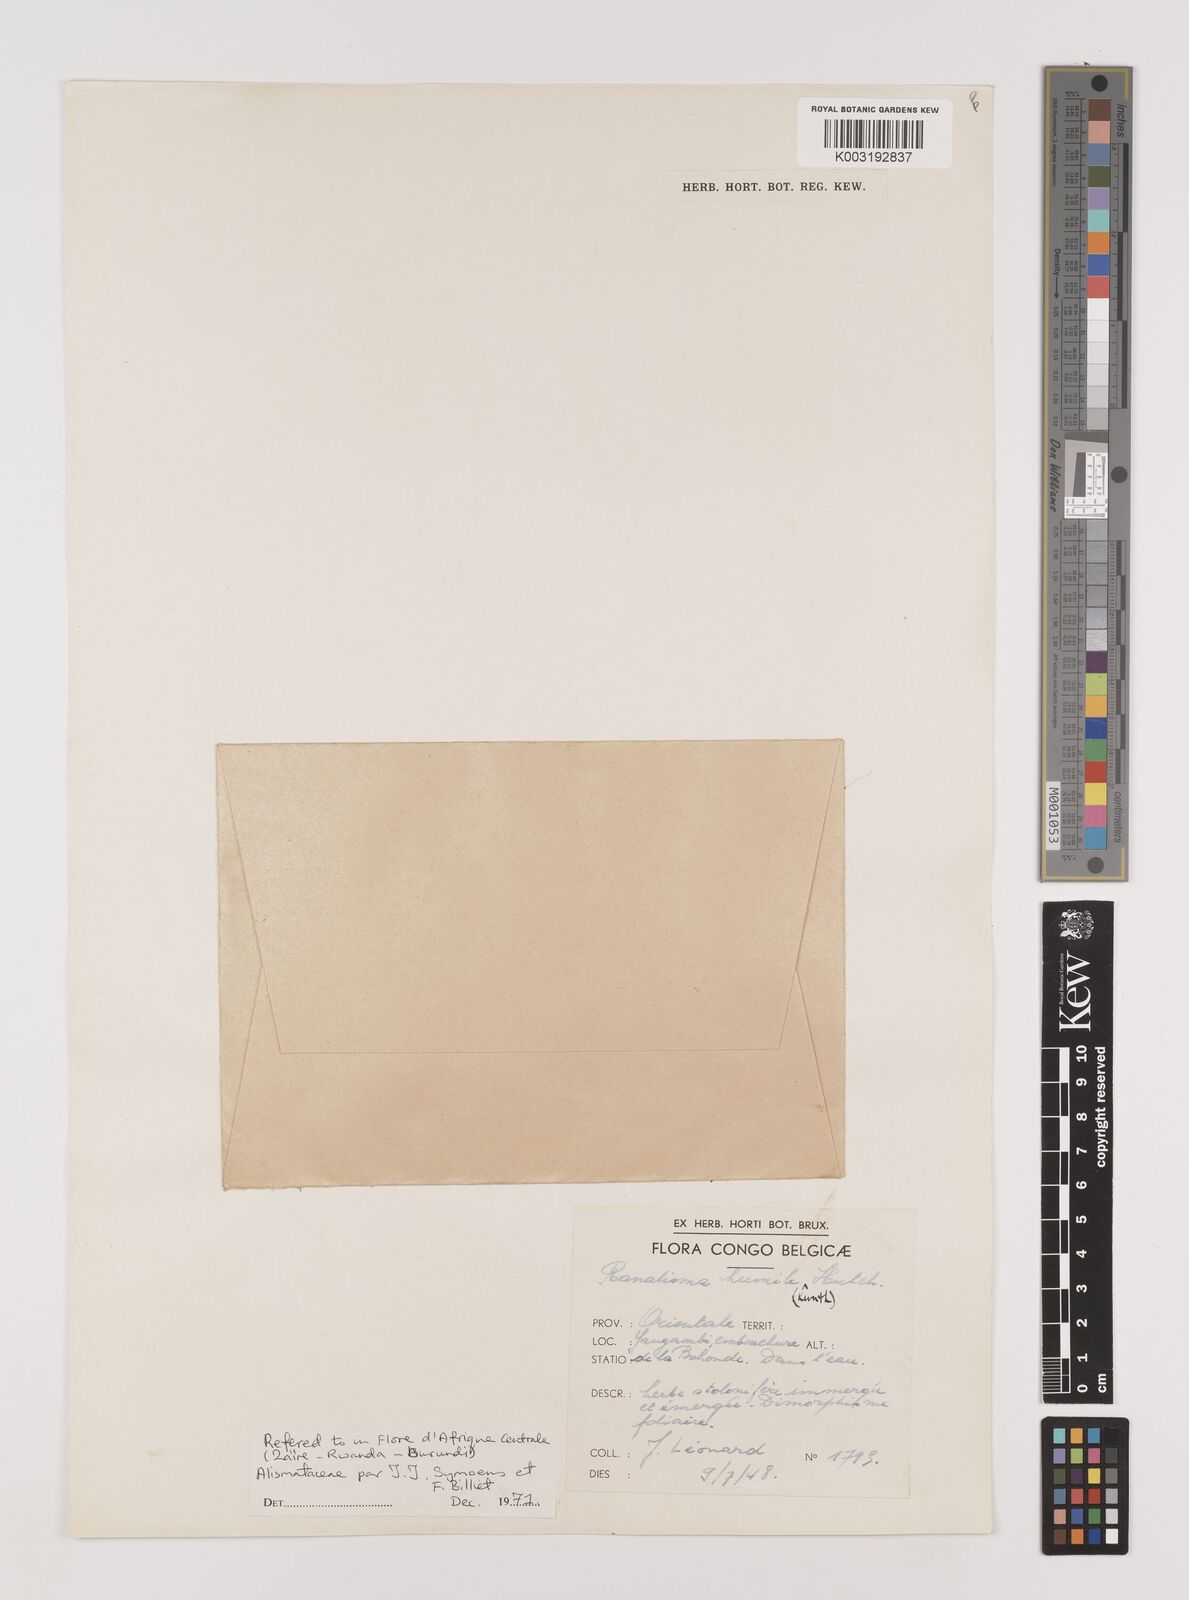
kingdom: Plantae
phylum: Tracheophyta
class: Liliopsida
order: Alismatales
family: Alismataceae
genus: Ranalisma
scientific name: Ranalisma humile
